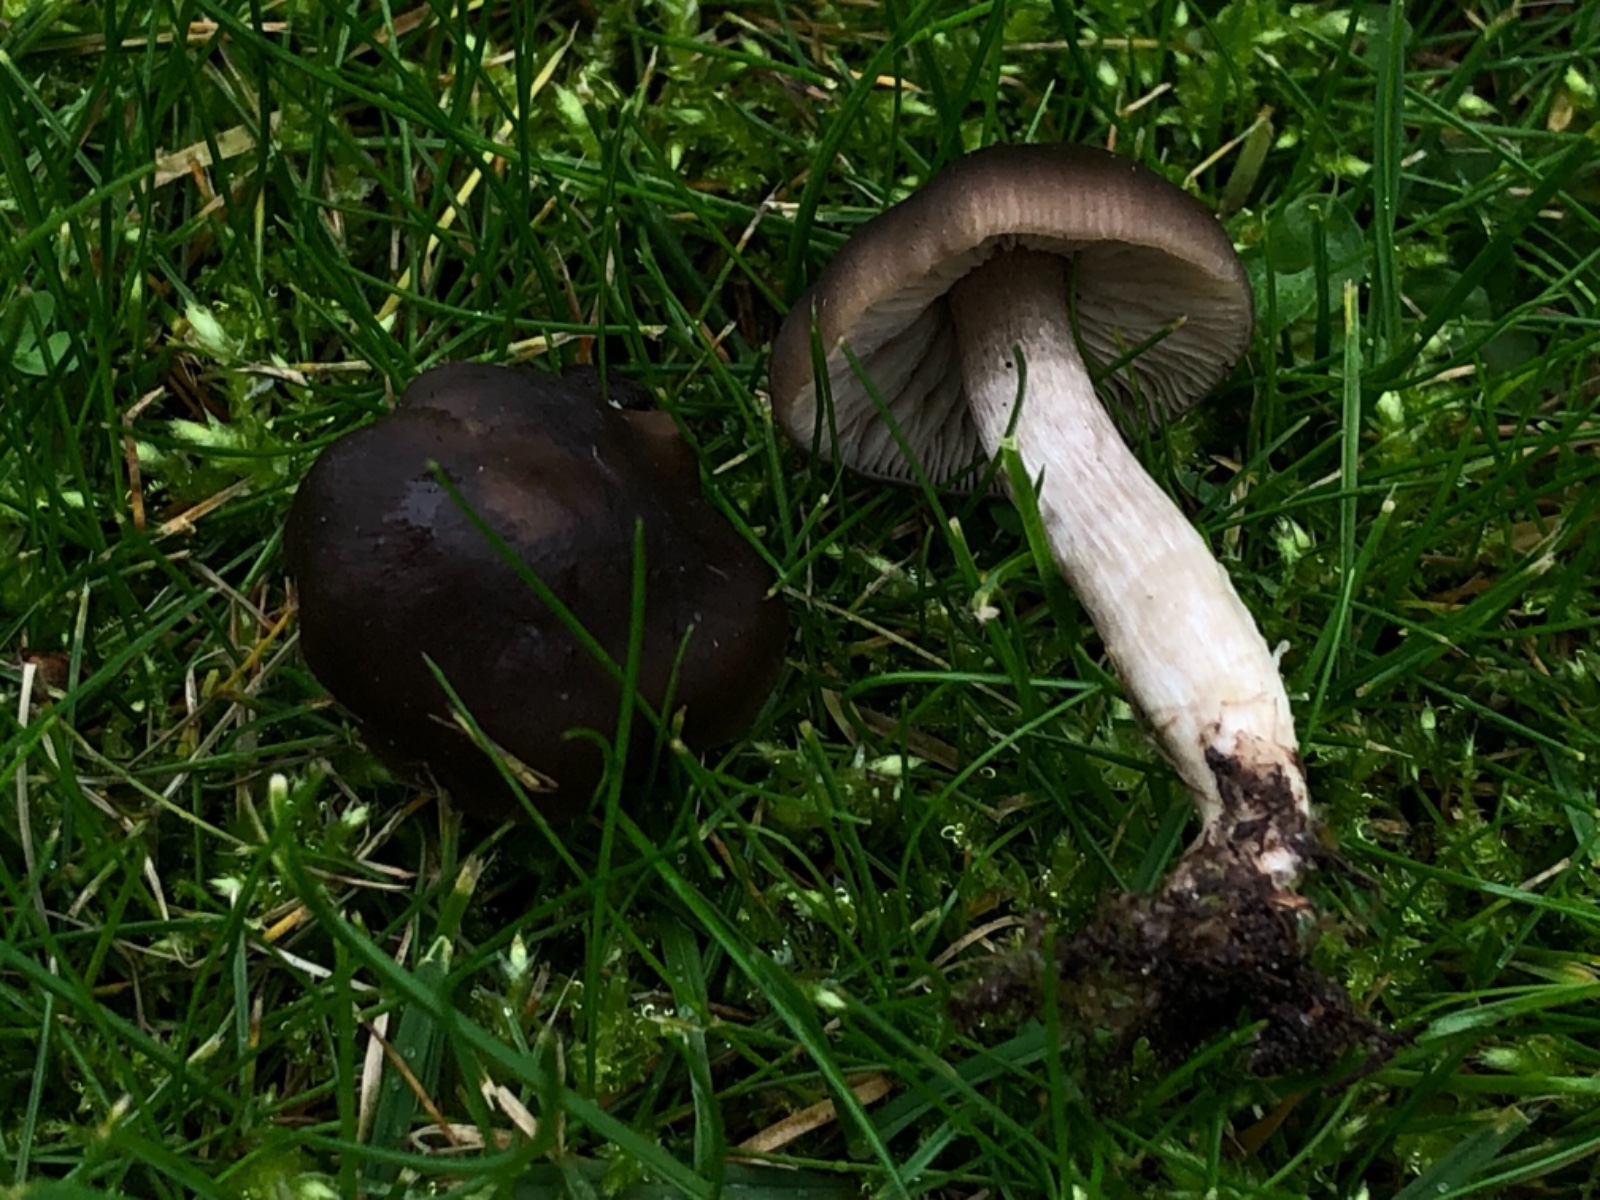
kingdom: Fungi
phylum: Basidiomycota
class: Agaricomycetes
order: Agaricales
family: Entolomataceae
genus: Entoloma
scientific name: Entoloma
